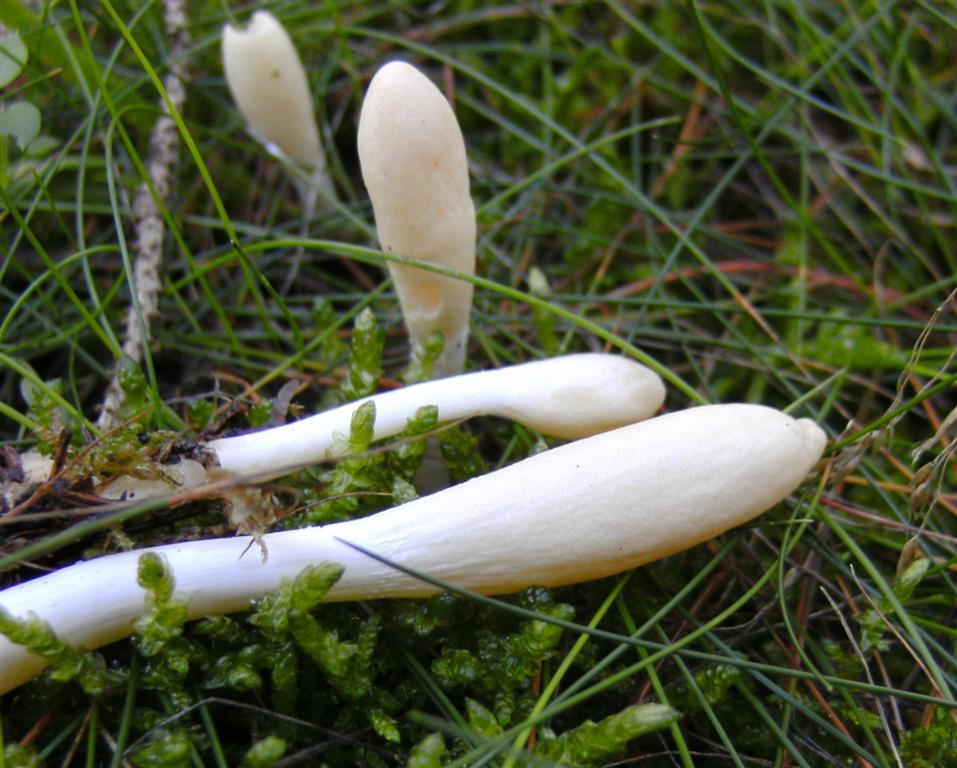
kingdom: Fungi
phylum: Ascomycota
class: Sordariomycetes
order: Hypocreales
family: Hypocreaceae
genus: Trichoderma
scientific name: Trichoderma leucopus
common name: lysstokket kødkerne
